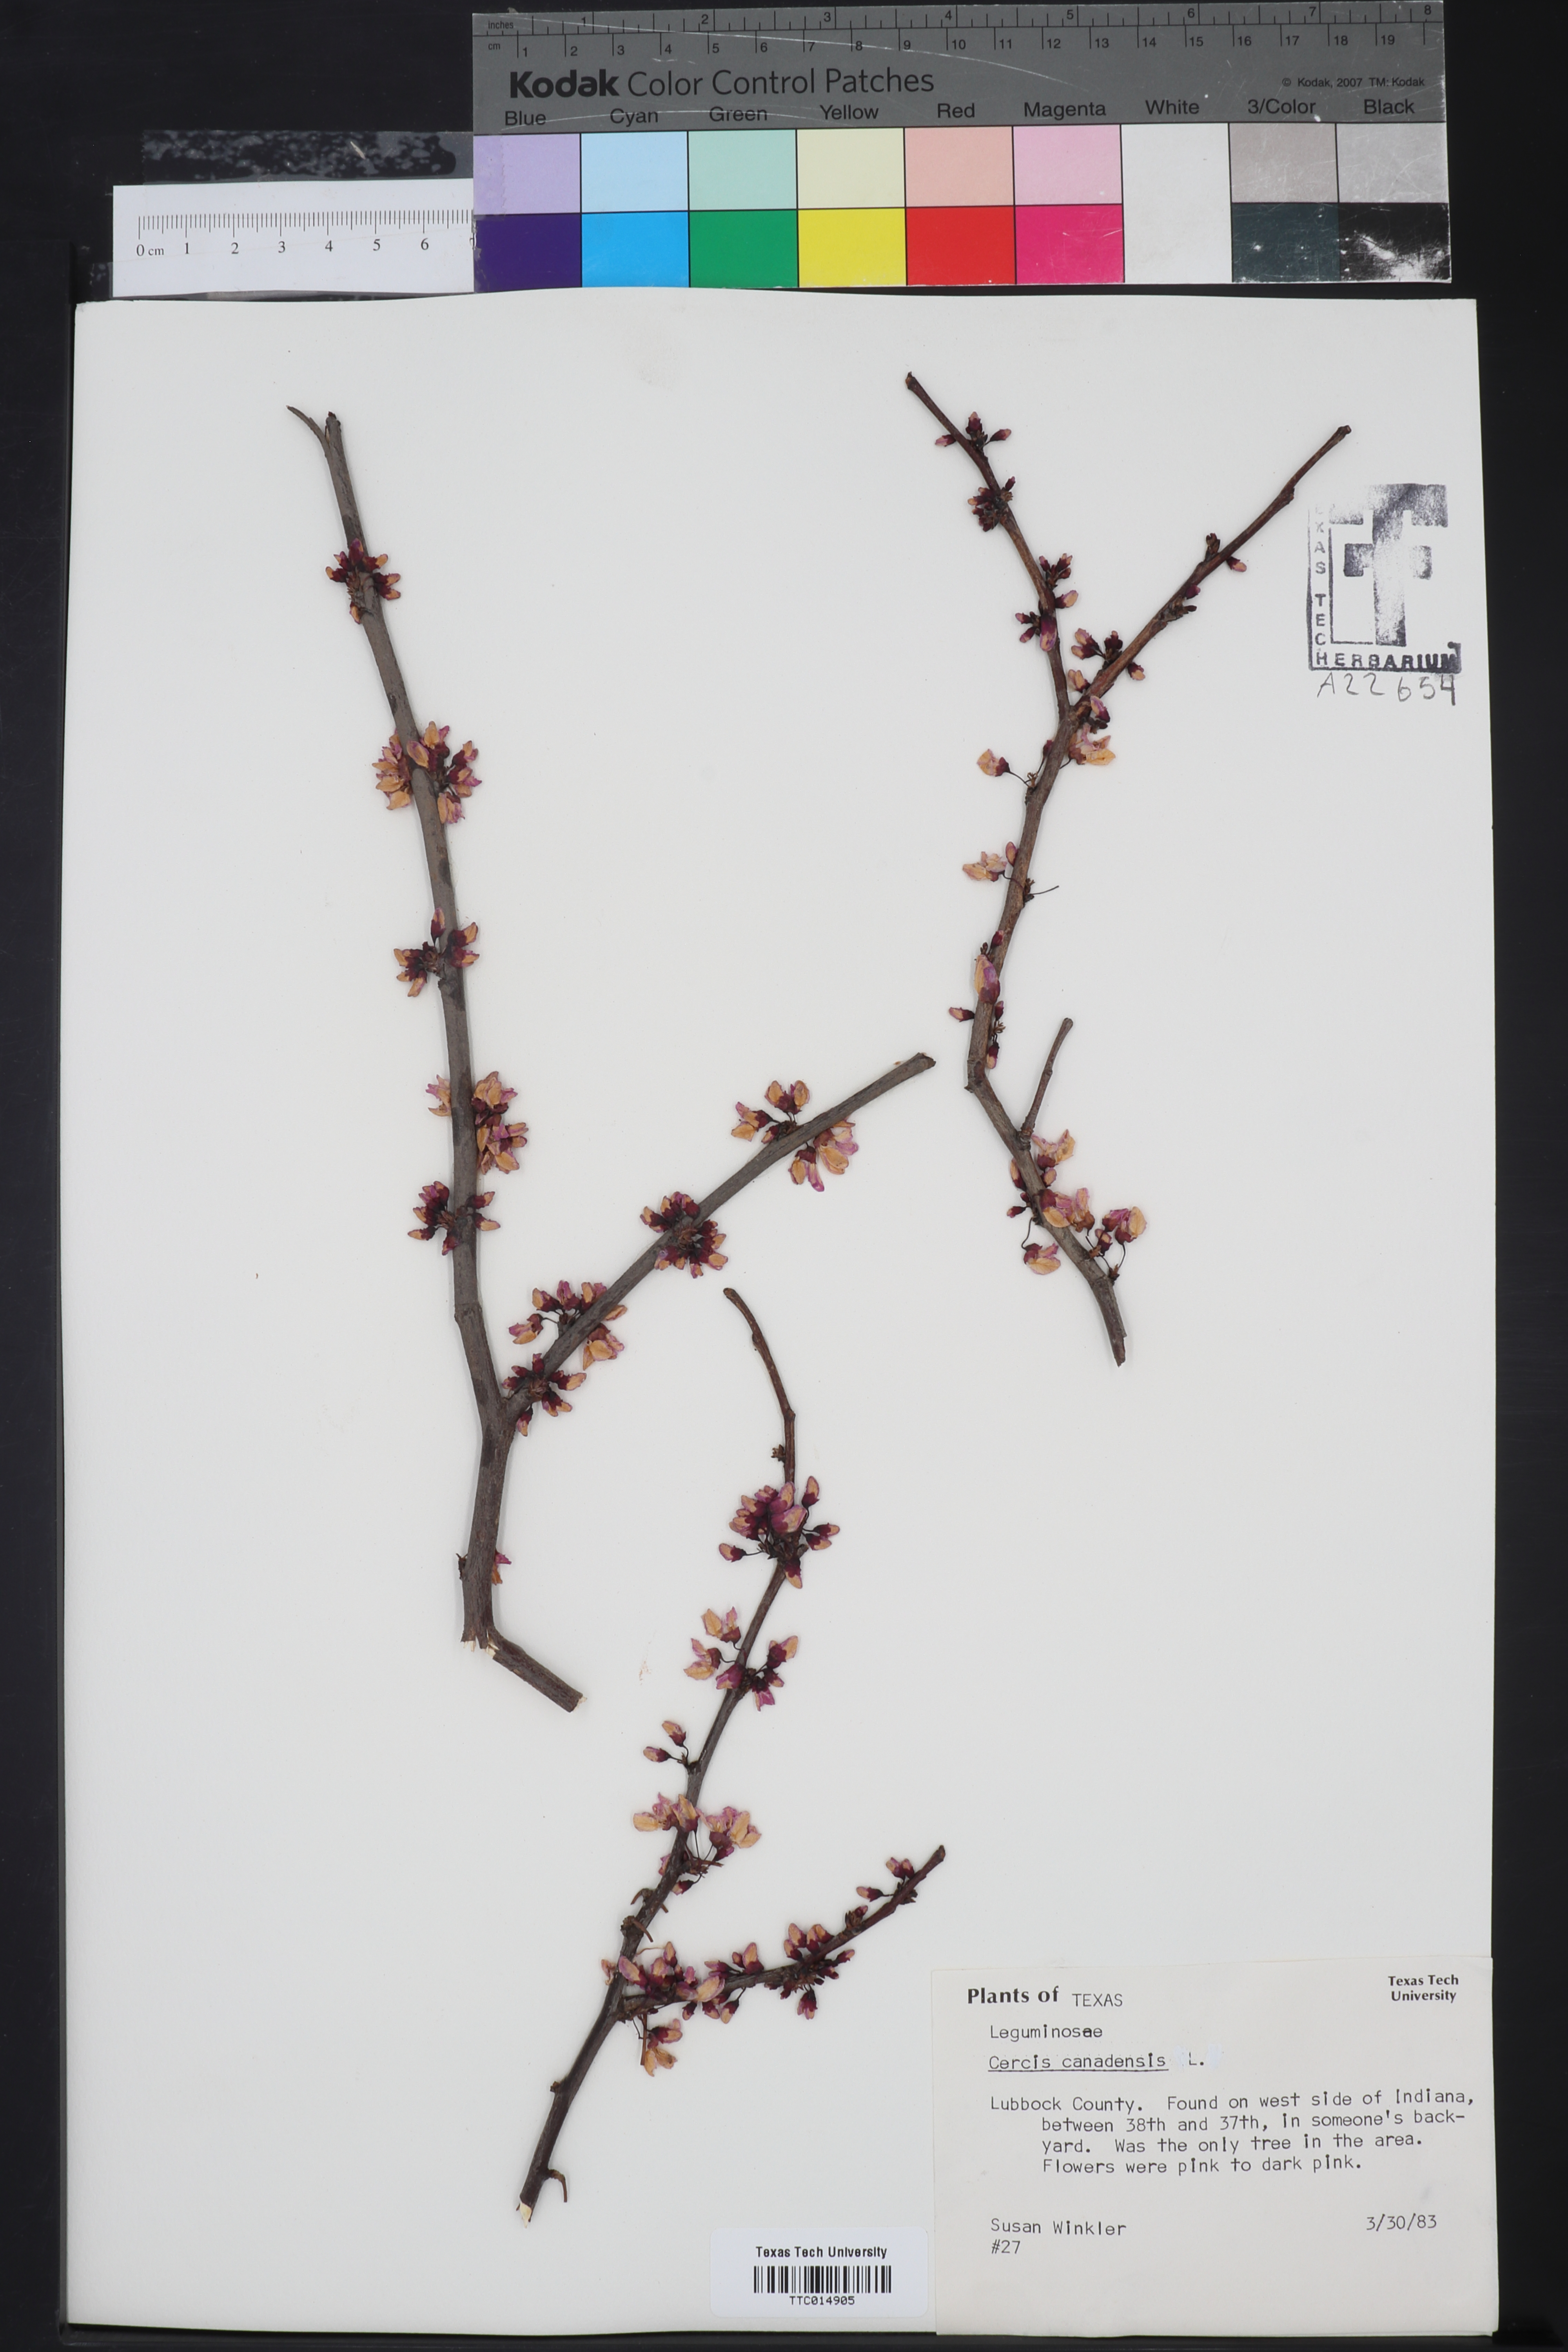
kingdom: Plantae
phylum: Tracheophyta
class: Magnoliopsida
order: Fabales
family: Fabaceae
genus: Cercis
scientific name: Cercis canadensis
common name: Eastern redbud
